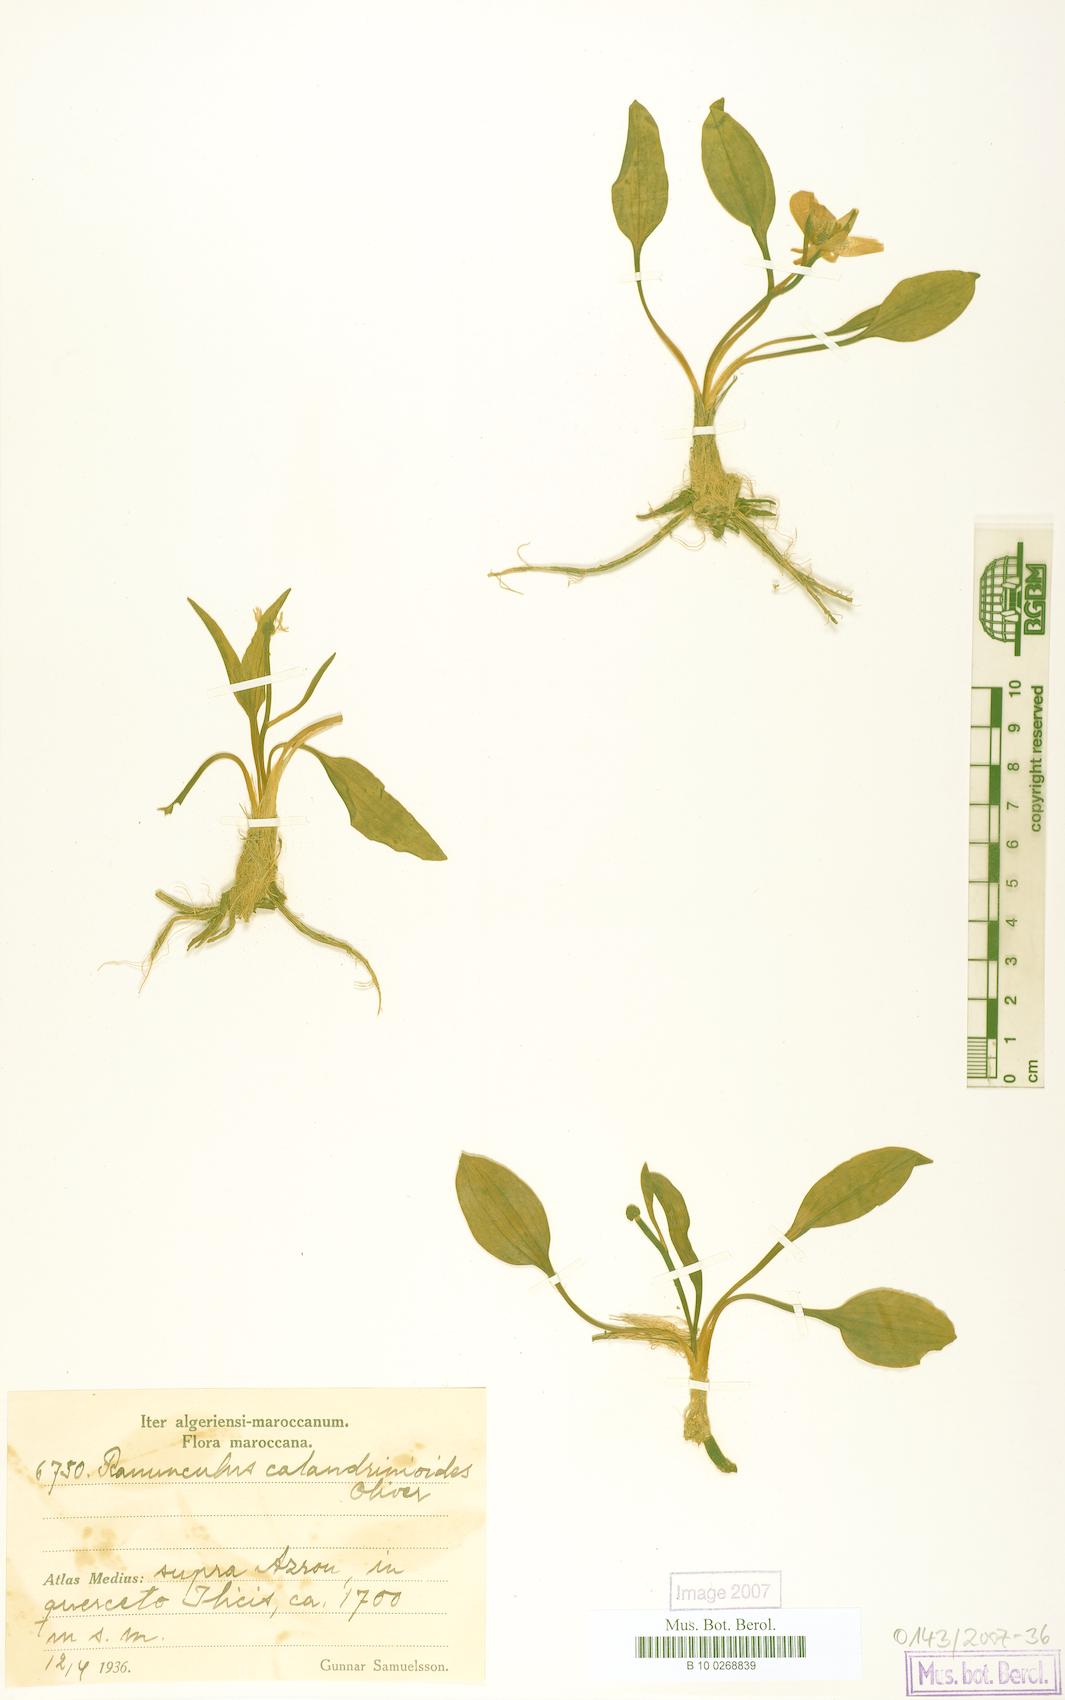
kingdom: Plantae
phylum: Tracheophyta
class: Magnoliopsida
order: Ranunculales
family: Ranunculaceae
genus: Ranunculus
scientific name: Ranunculus calandrinioides
